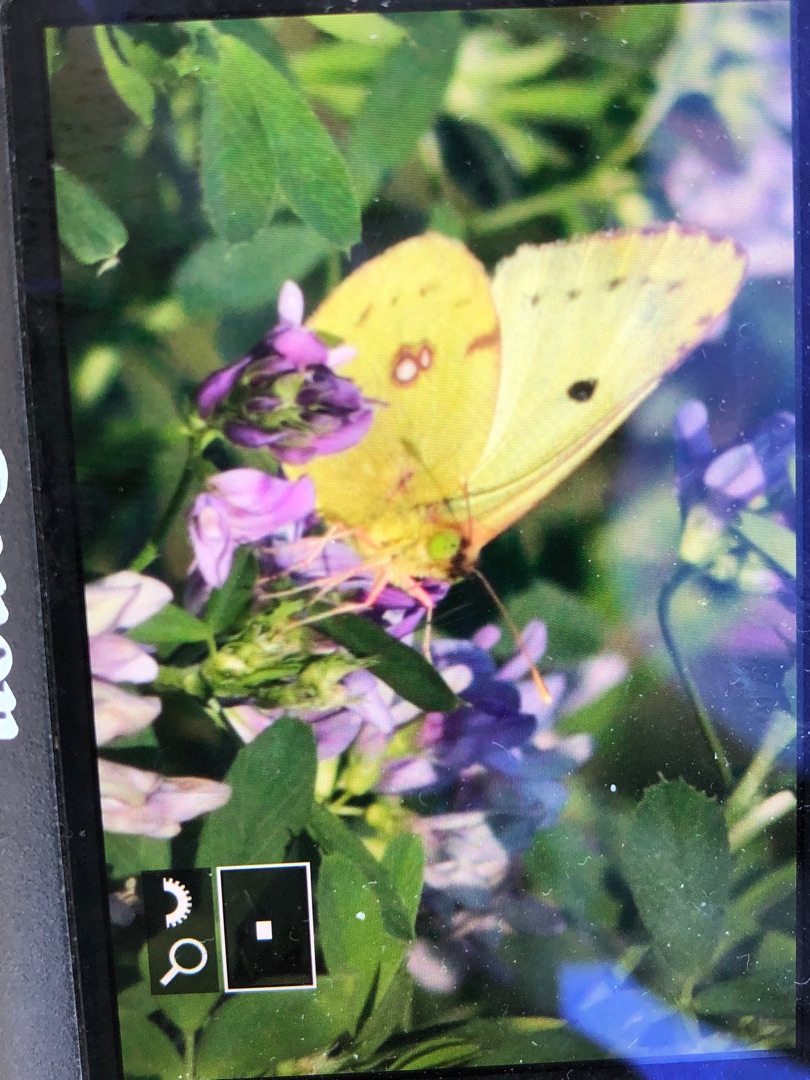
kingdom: Animalia
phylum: Arthropoda
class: Insecta
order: Lepidoptera
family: Pieridae
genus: Colias
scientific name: Colias hyale
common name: Gul høsommerfugl
